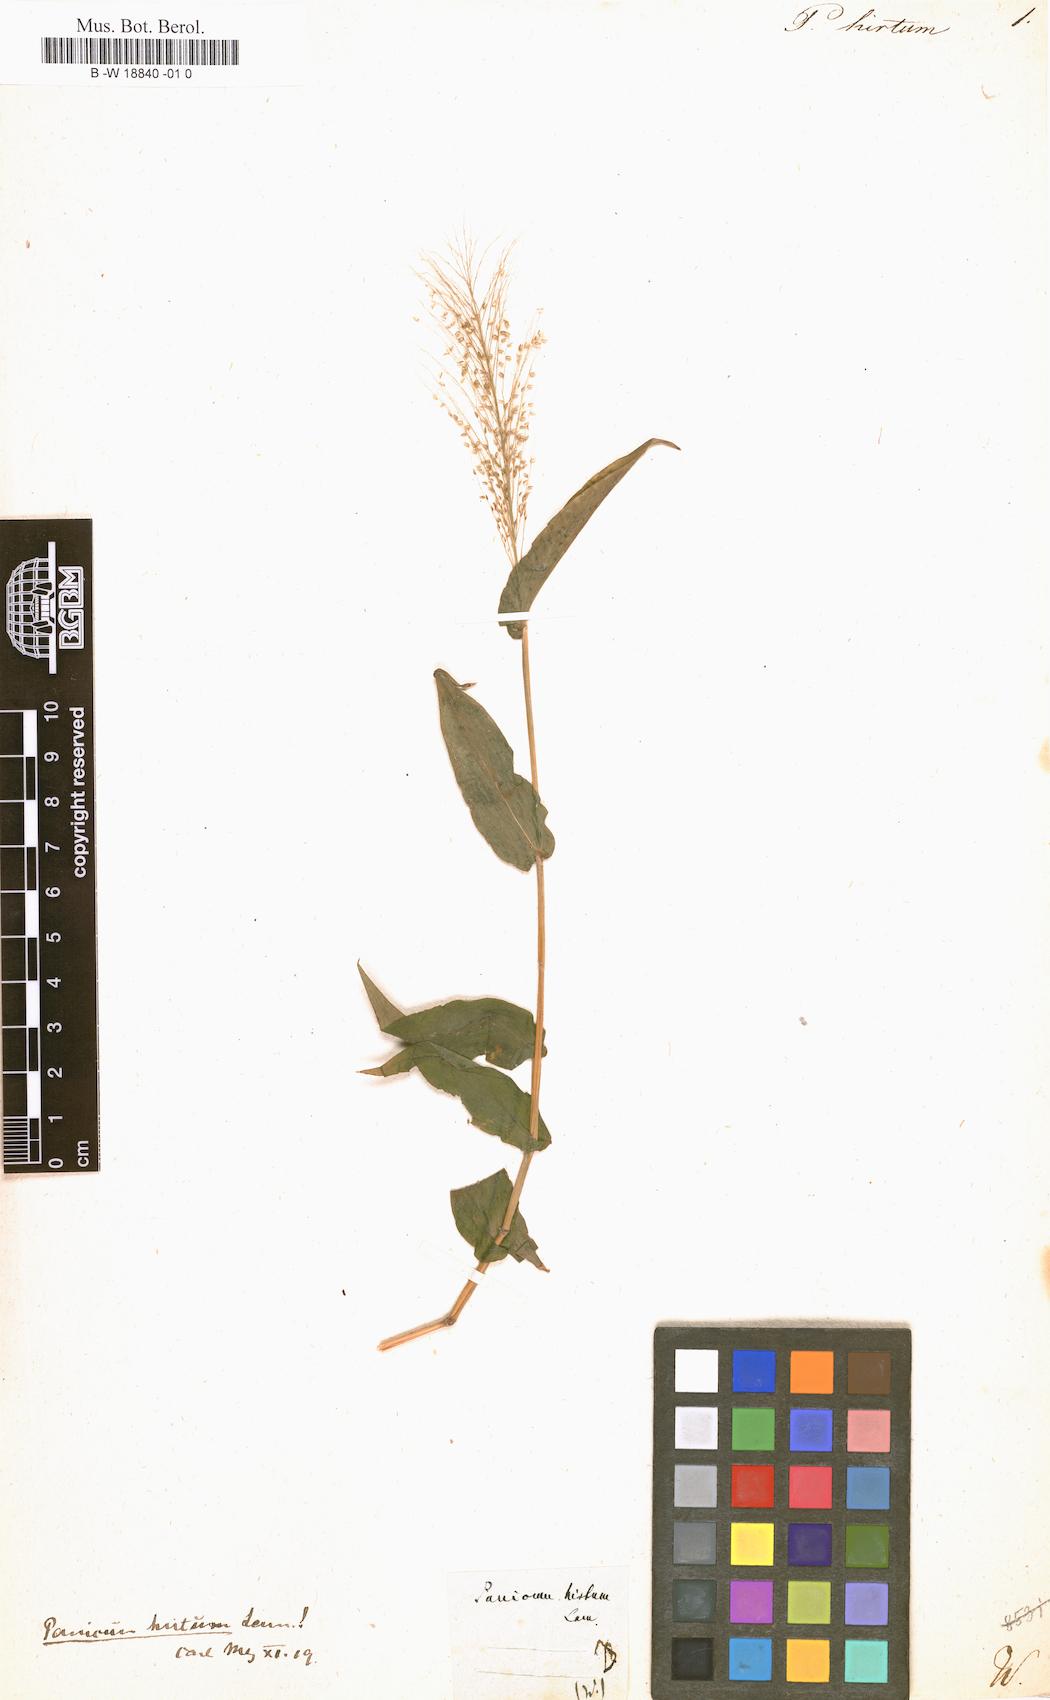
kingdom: Plantae
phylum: Tracheophyta
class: Liliopsida
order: Poales
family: Poaceae
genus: Panicum
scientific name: Panicum hirtum
